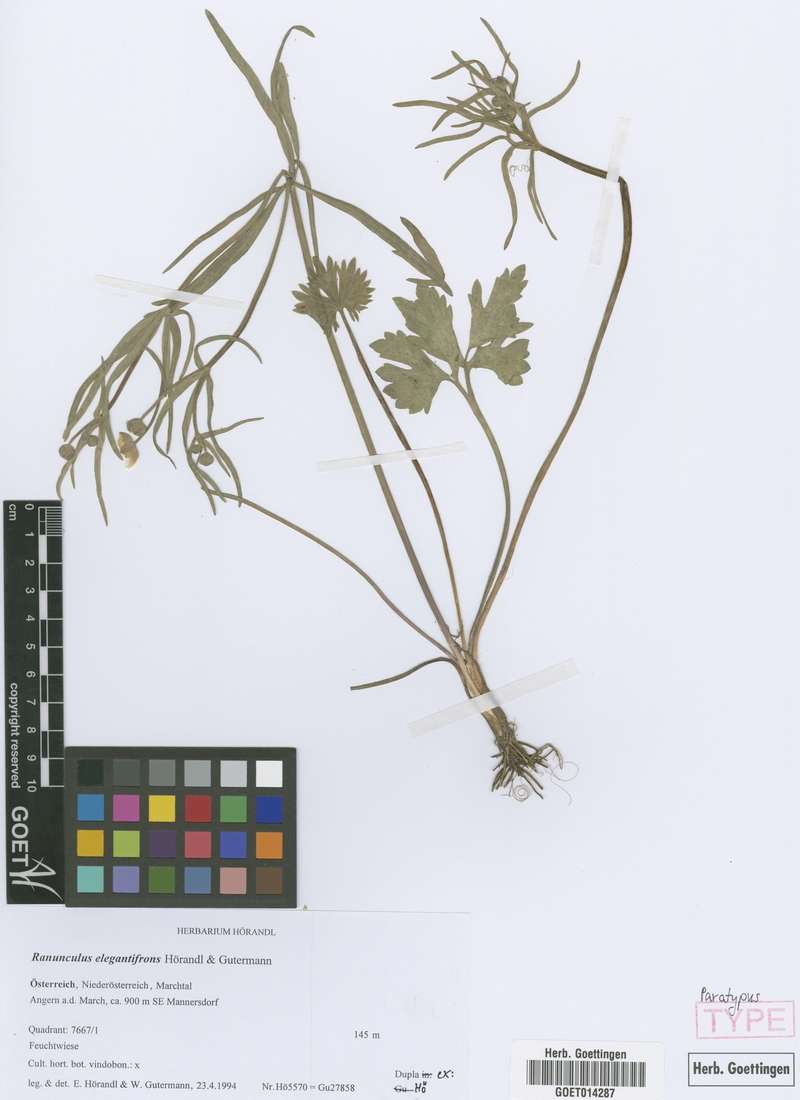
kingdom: Plantae
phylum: Tracheophyta
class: Magnoliopsida
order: Ranunculales
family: Ranunculaceae
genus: Ranunculus
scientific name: Ranunculus elegantifrons
